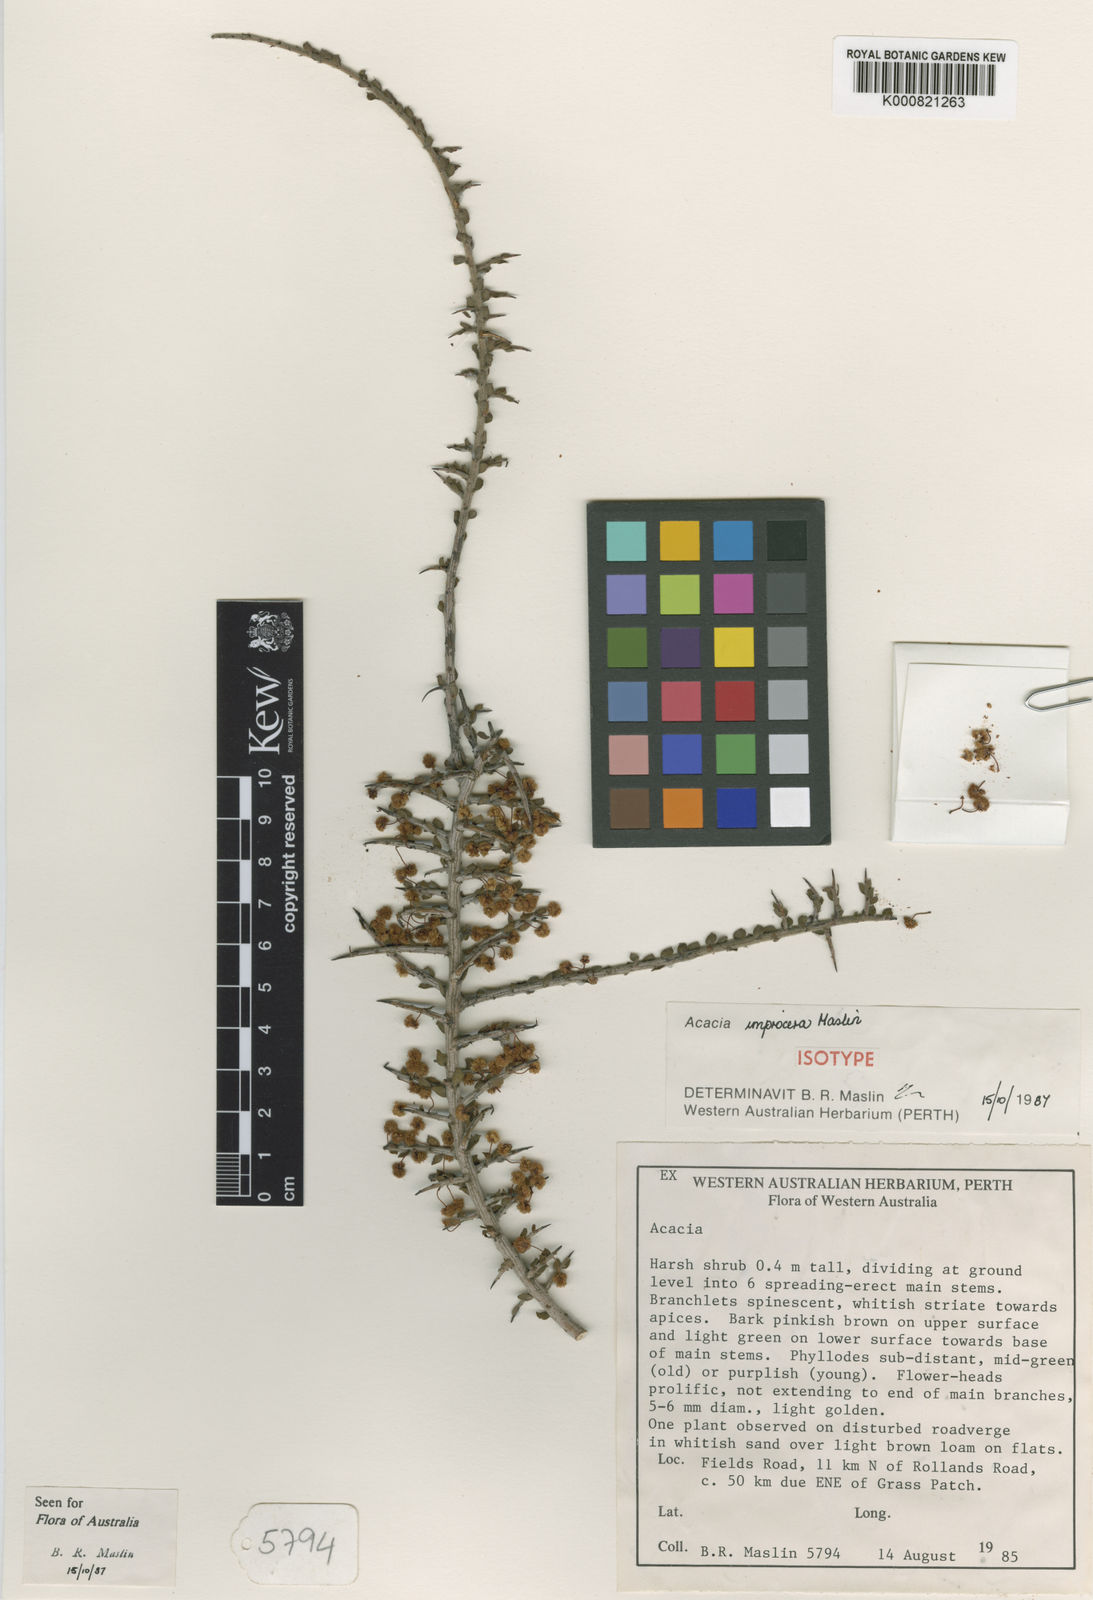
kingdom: Plantae
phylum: Tracheophyta
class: Magnoliopsida
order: Fabales
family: Fabaceae
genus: Acacia
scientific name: Acacia improcera
